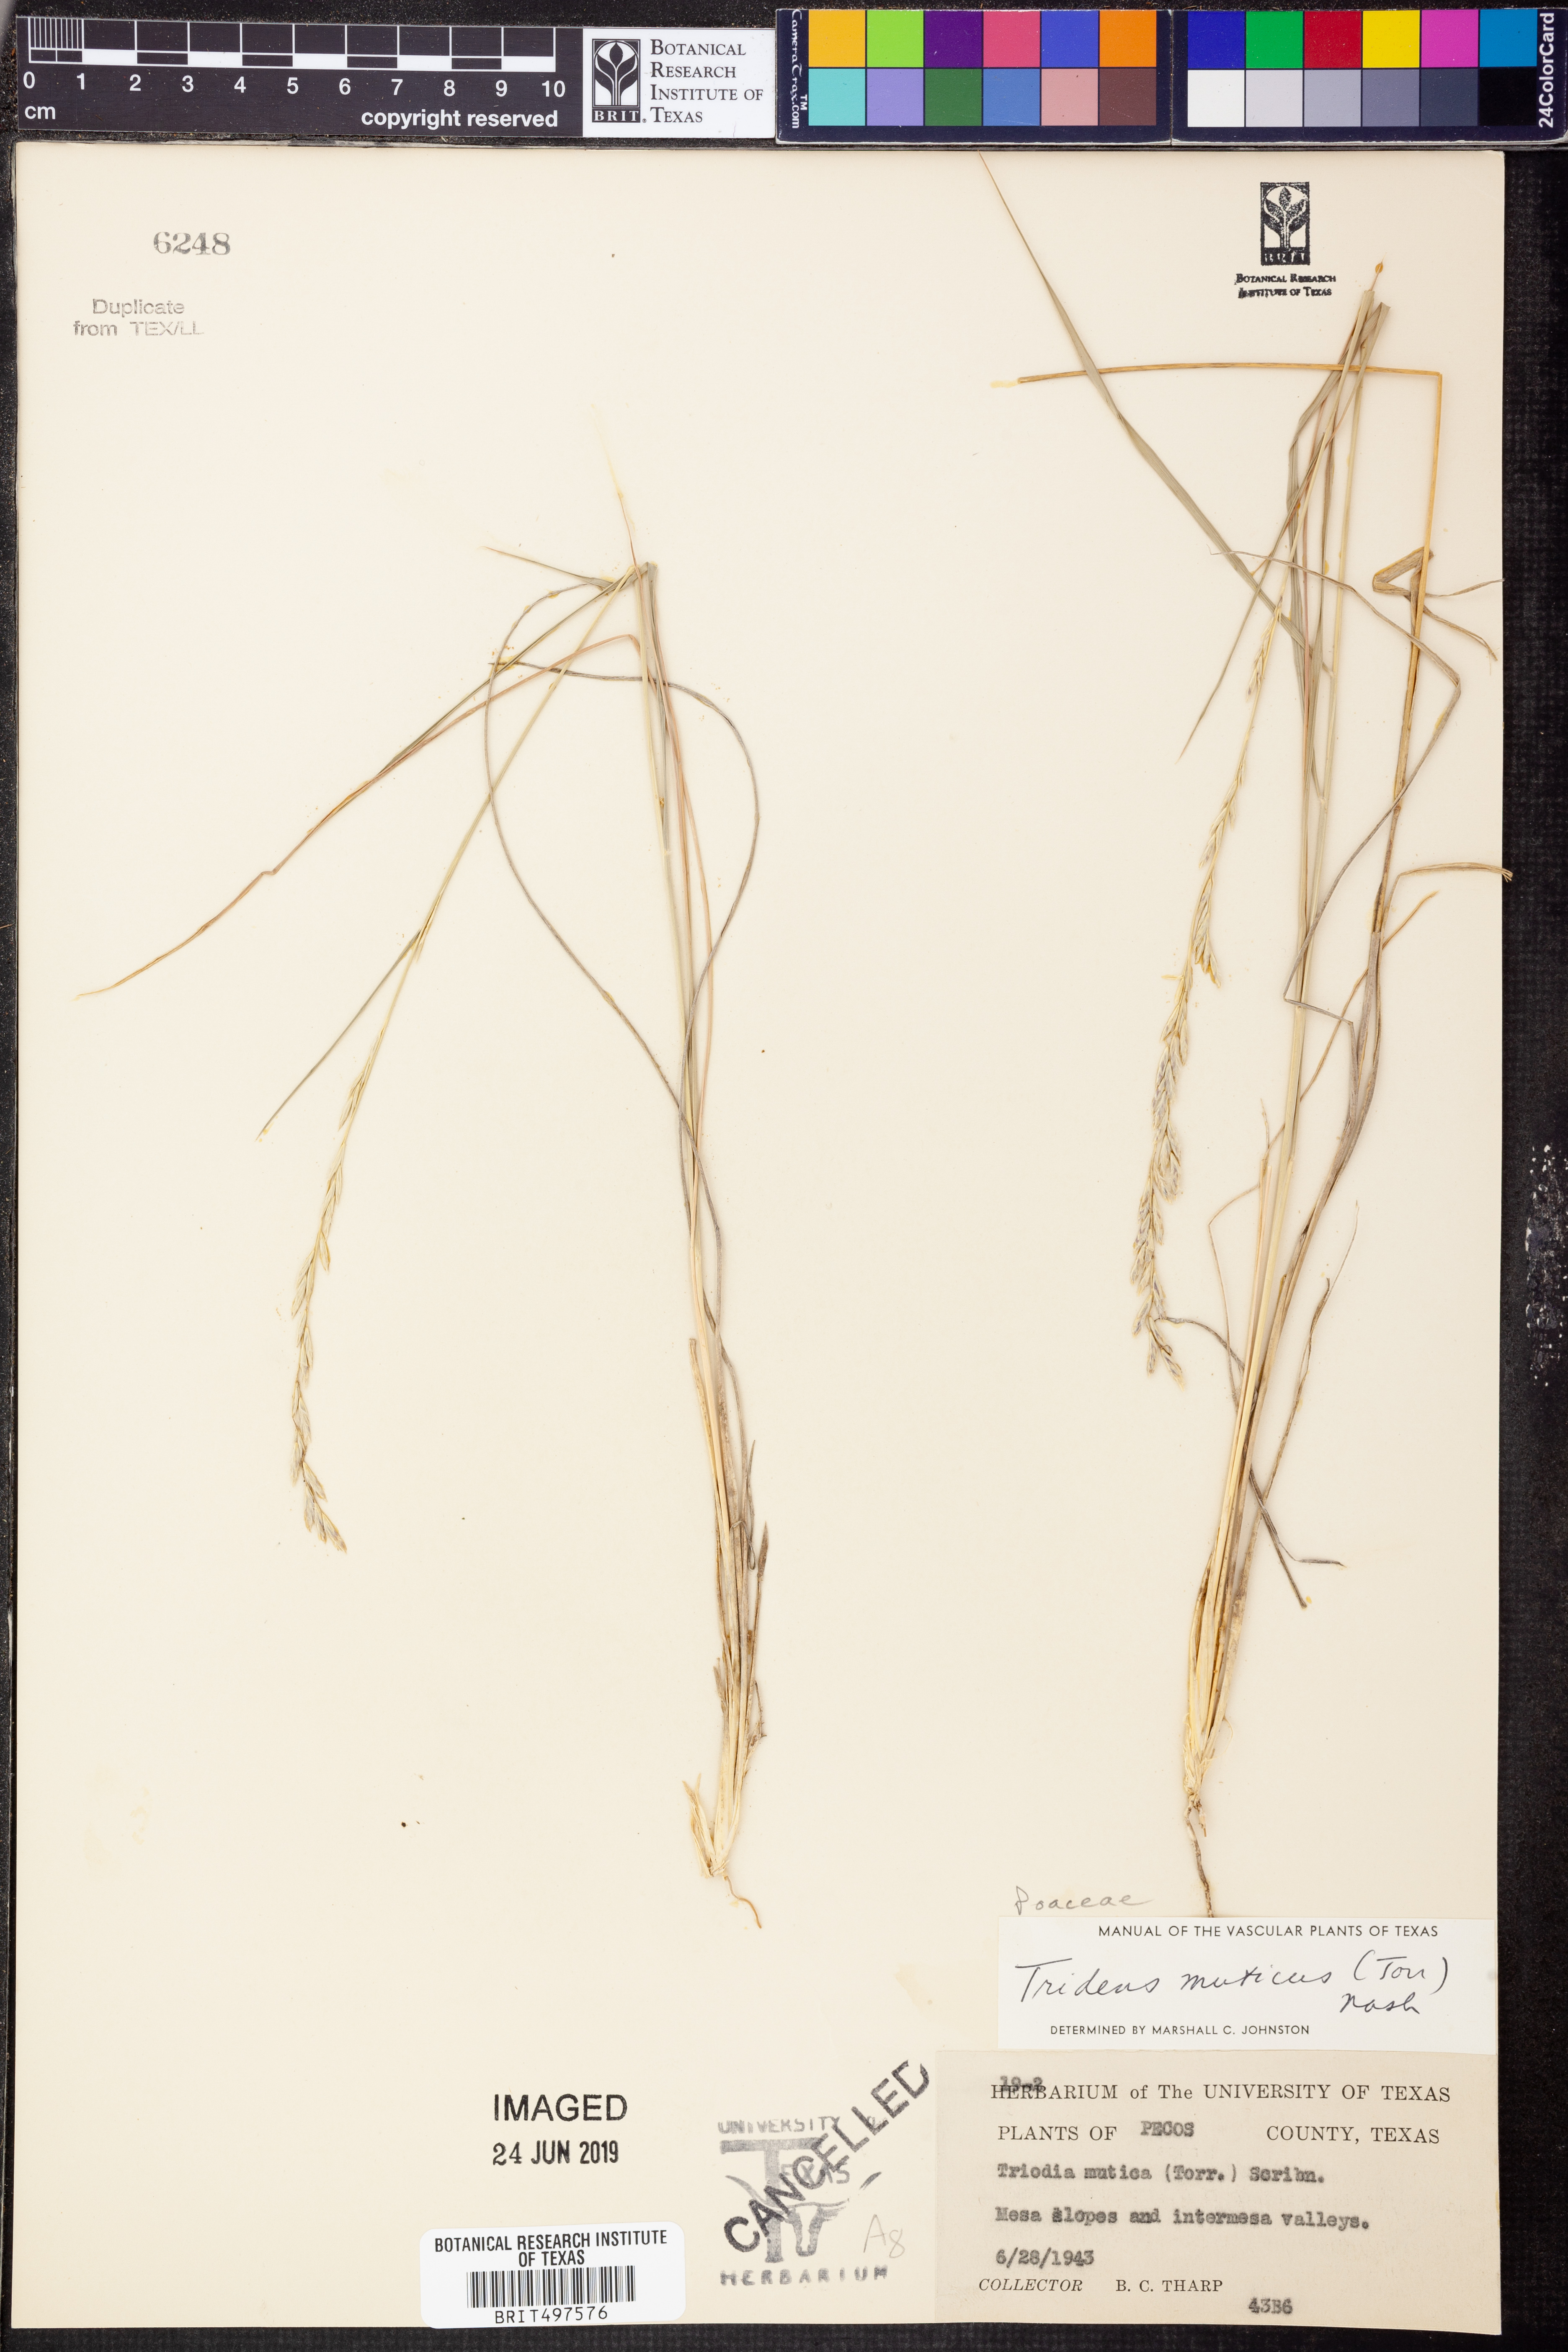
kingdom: Plantae
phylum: Tracheophyta
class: Liliopsida
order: Poales
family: Poaceae
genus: Tridentopsis
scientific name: Tridentopsis mutica
